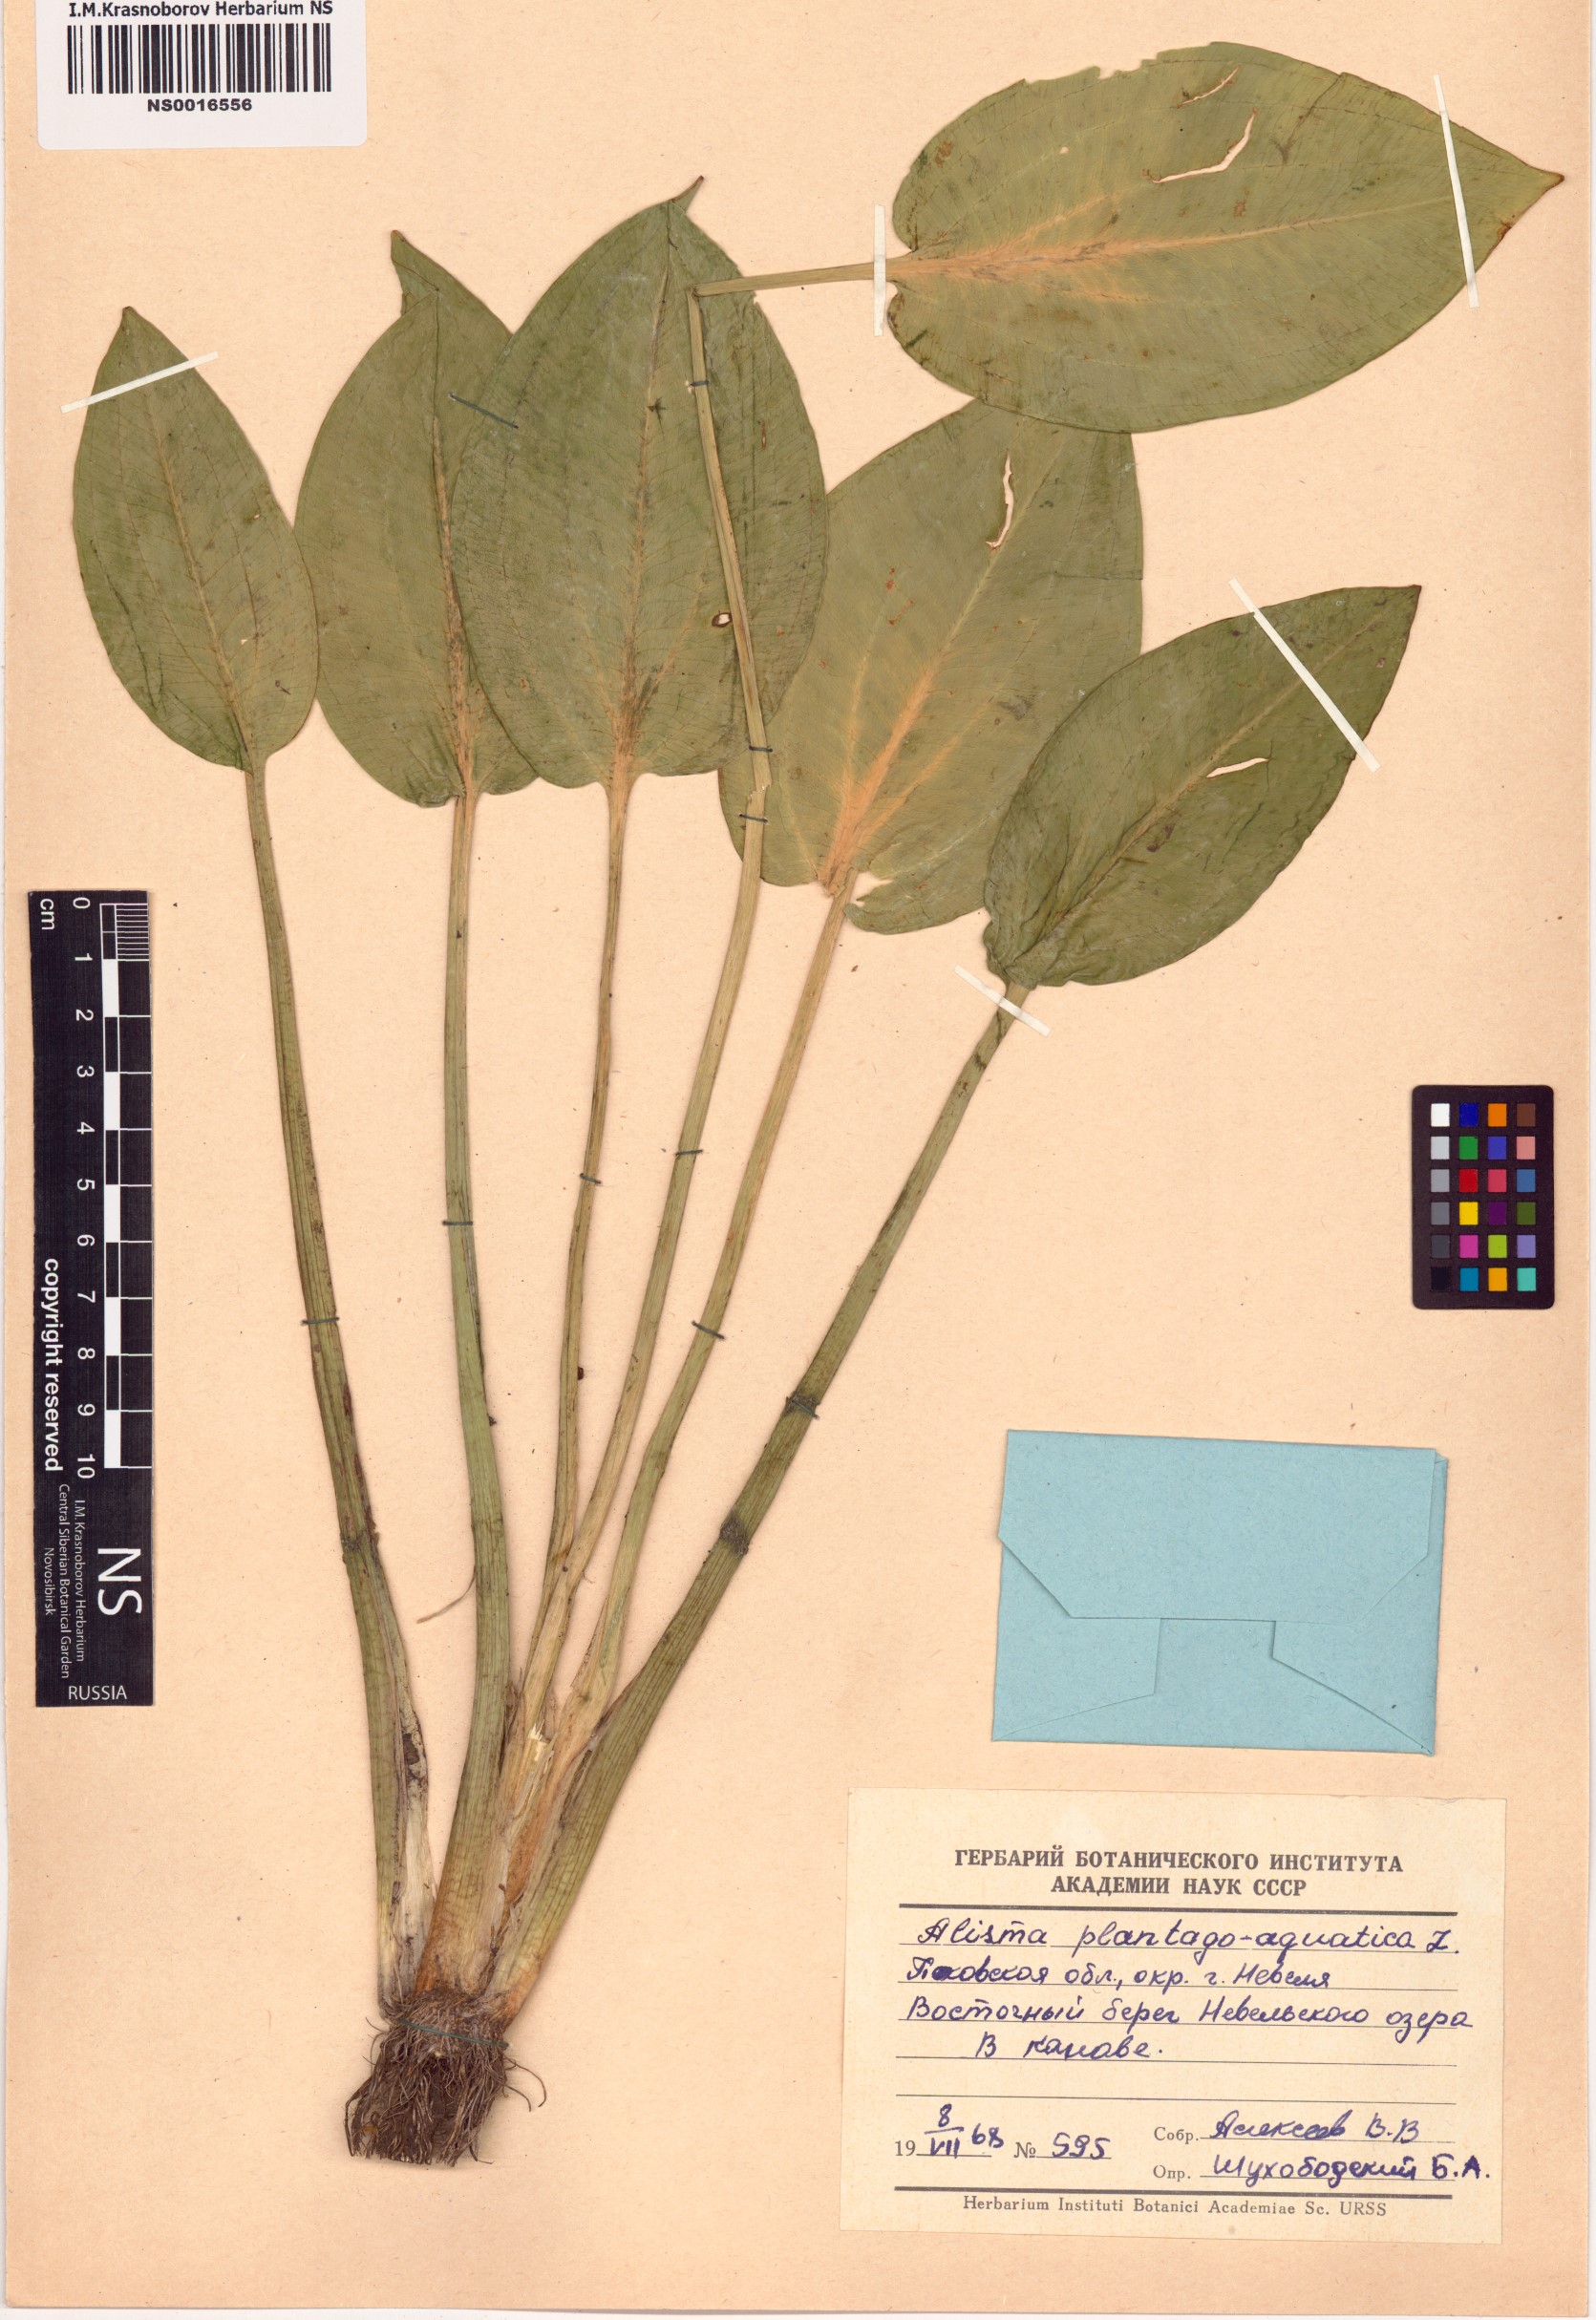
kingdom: Plantae
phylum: Tracheophyta
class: Liliopsida
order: Alismatales
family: Alismataceae
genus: Alisma
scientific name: Alisma plantago-aquatica
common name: Water-plantain
